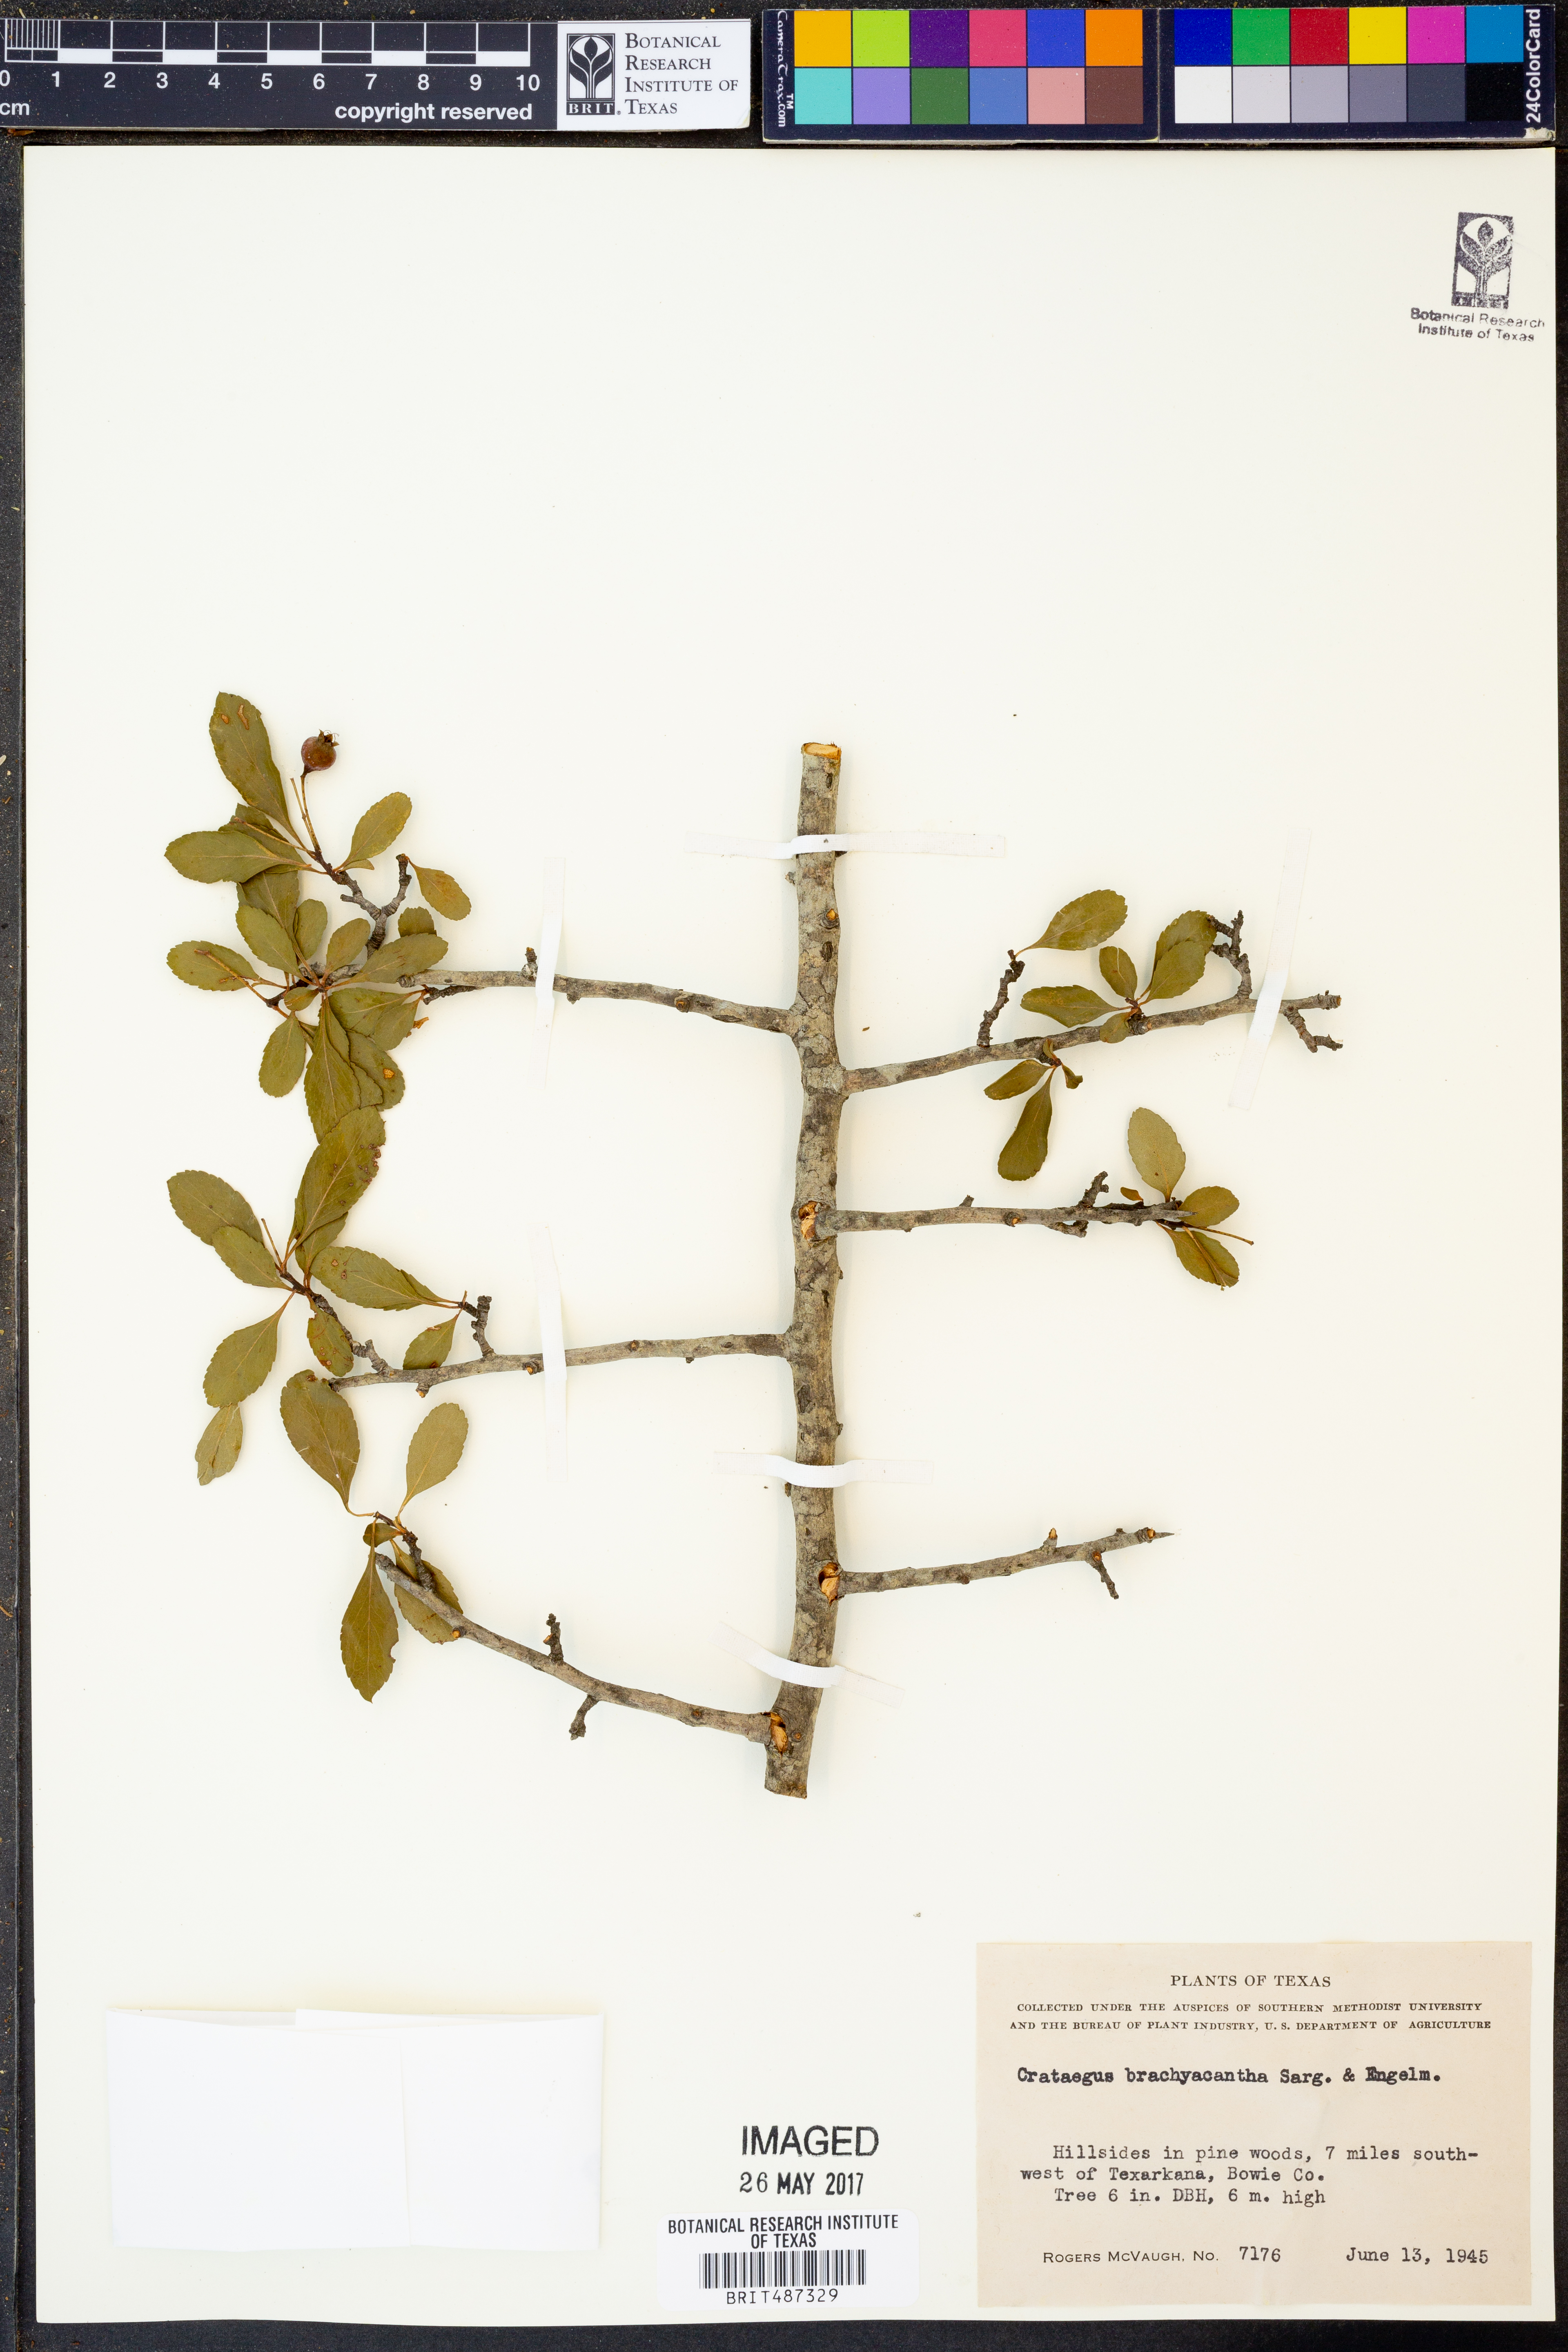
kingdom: Plantae
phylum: Tracheophyta
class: Magnoliopsida
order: Rosales
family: Rosaceae
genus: Crataegus
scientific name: Crataegus brachyacantha
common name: Blueberry-hawthorn
